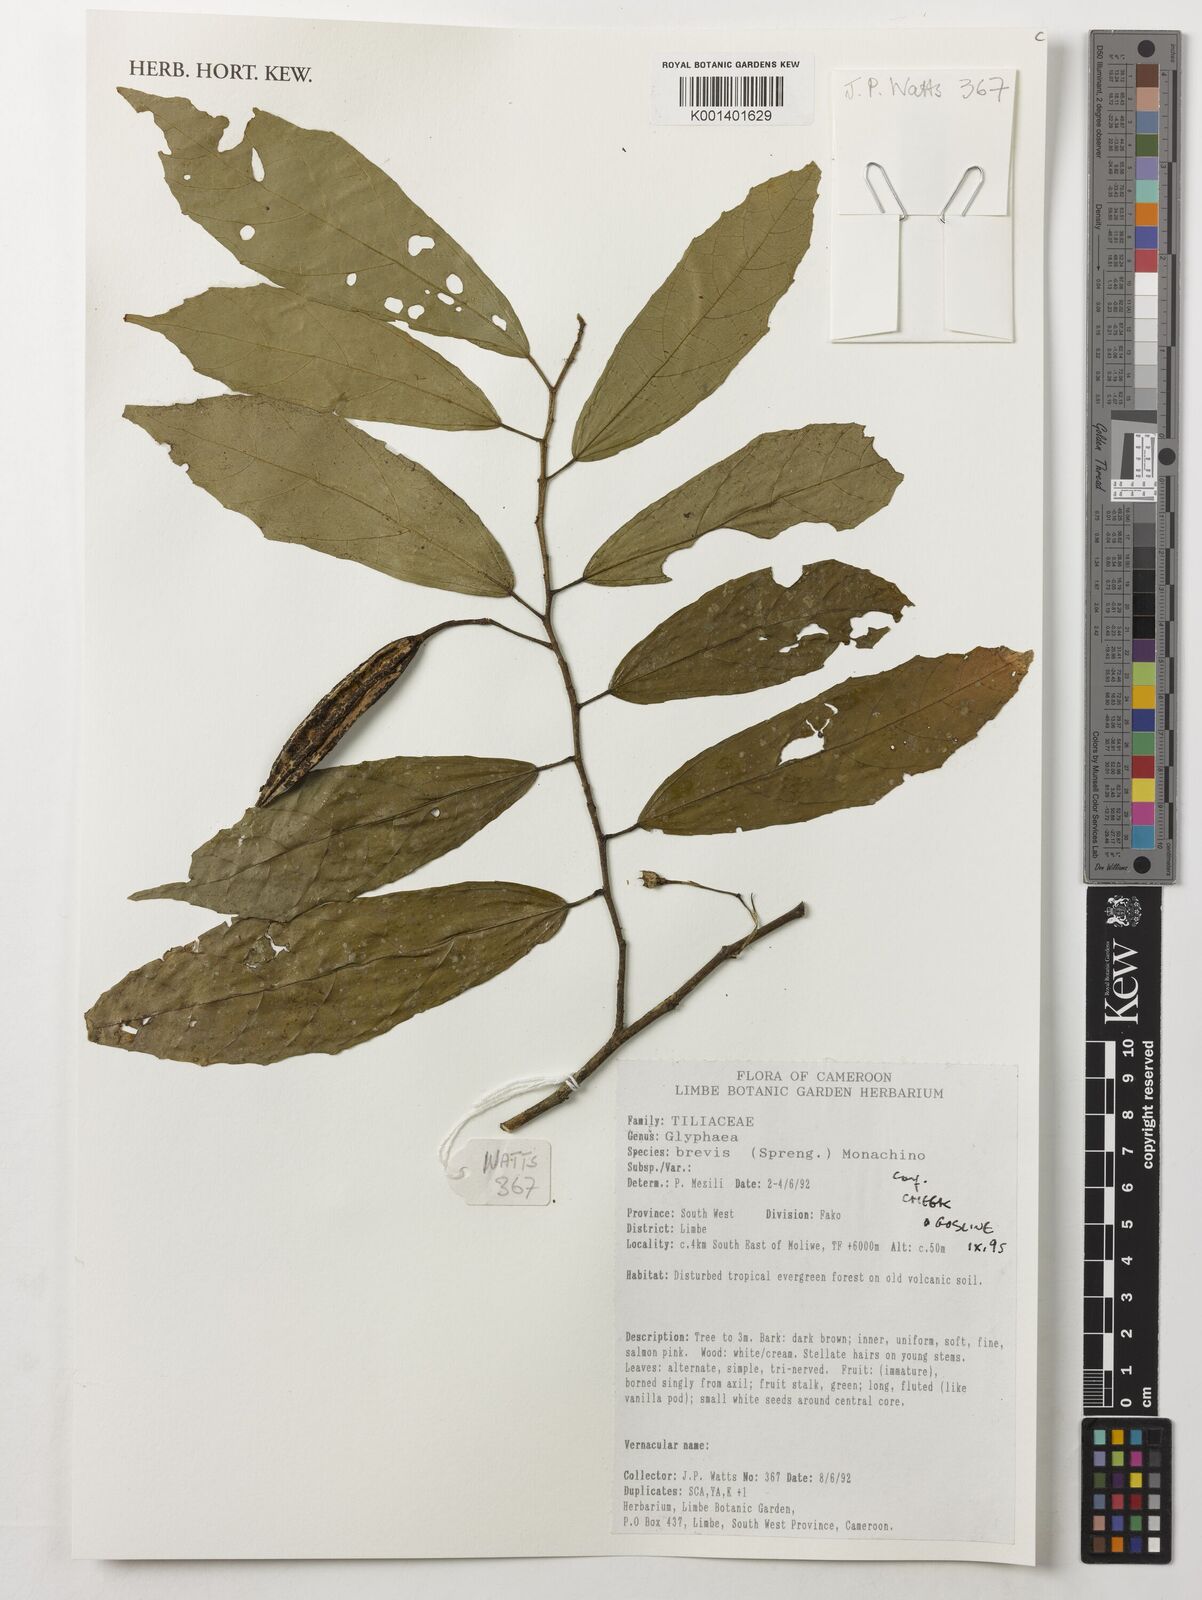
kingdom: Plantae
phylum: Tracheophyta
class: Magnoliopsida
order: Malvales
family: Malvaceae
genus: Glyphaea
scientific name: Glyphaea brevis
